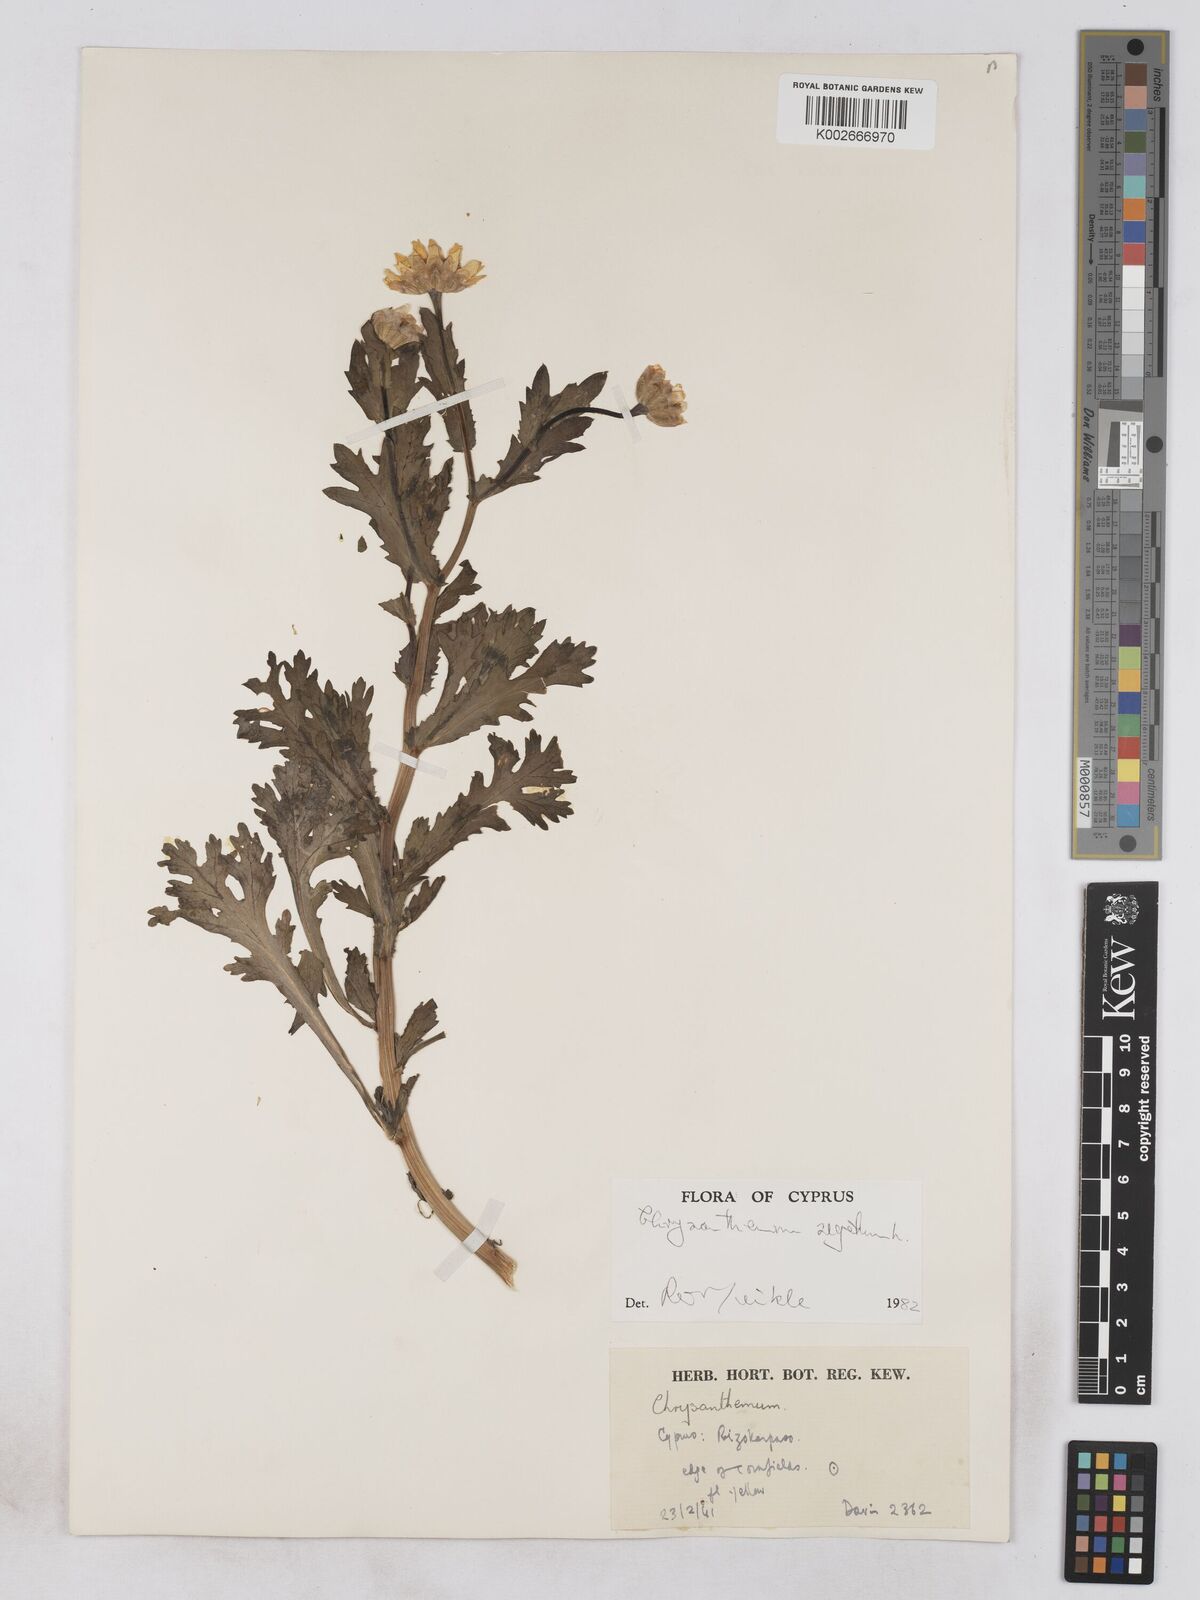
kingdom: Plantae
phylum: Tracheophyta
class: Magnoliopsida
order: Asterales
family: Asteraceae
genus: Glebionis
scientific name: Glebionis segetum
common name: Corndaisy
